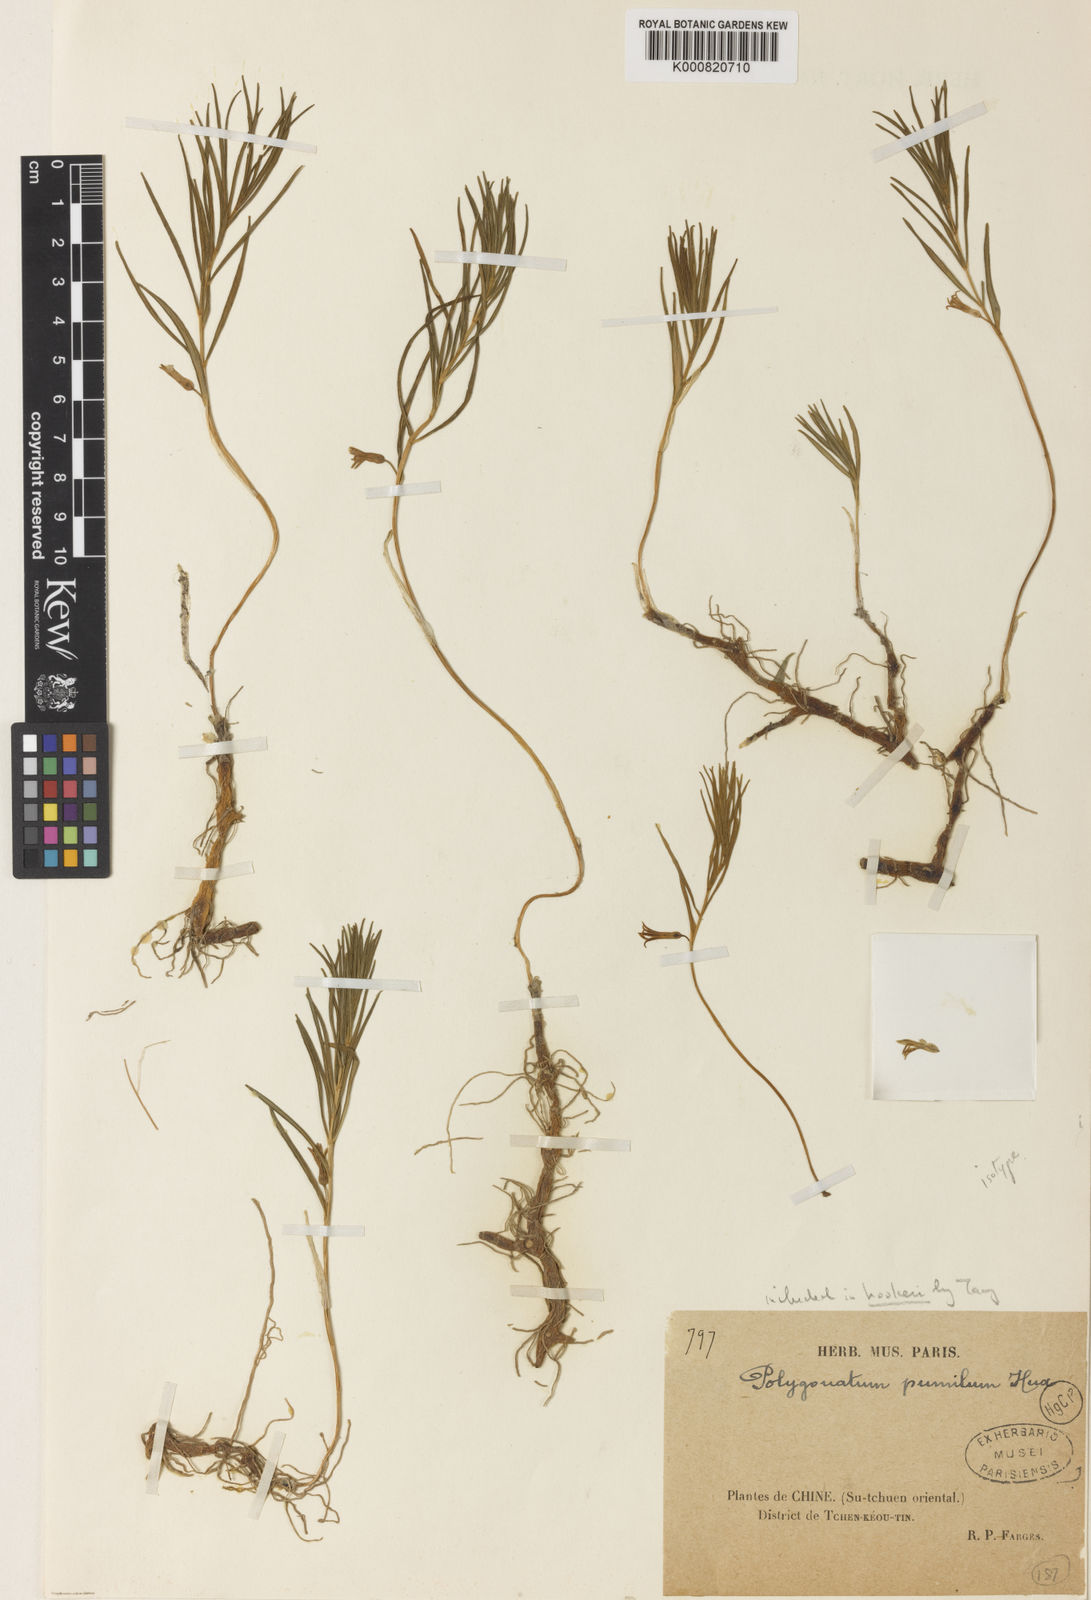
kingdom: Plantae
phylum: Tracheophyta
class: Liliopsida
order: Asparagales
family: Asparagaceae
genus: Polygonatum
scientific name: Polygonatum hookeri
